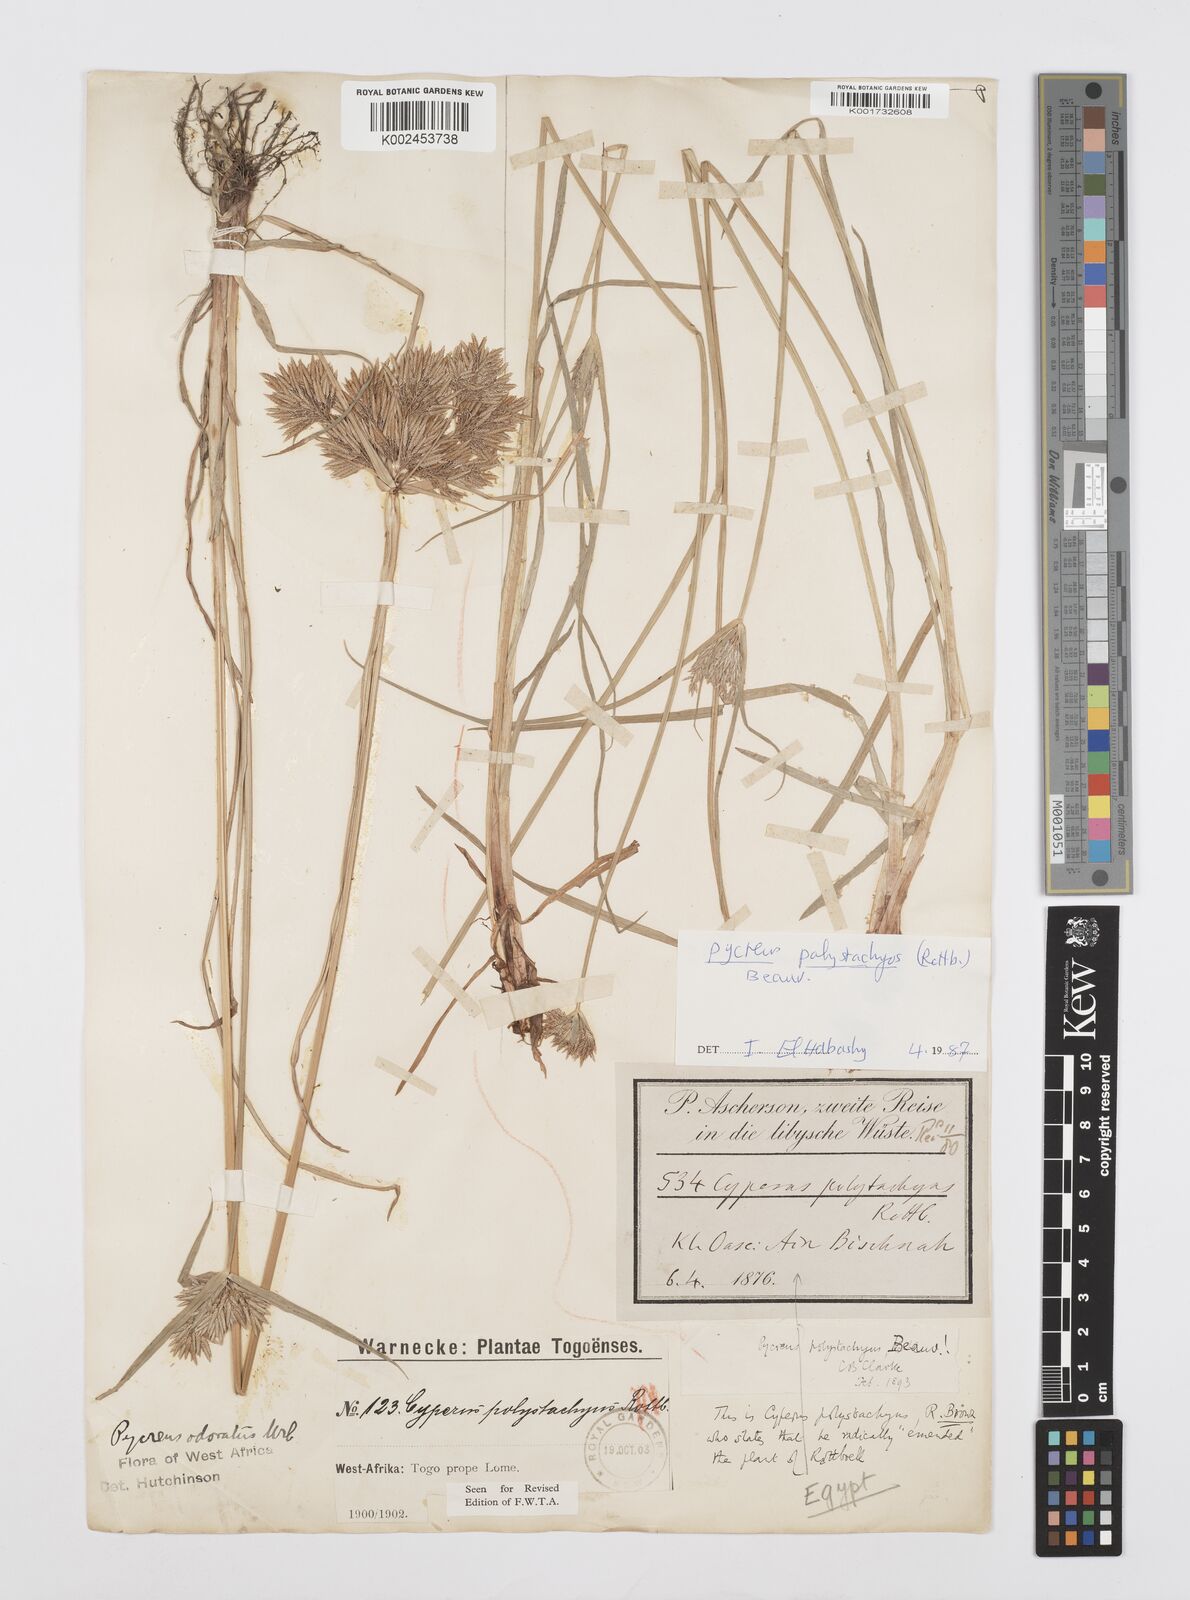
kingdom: Plantae
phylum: Tracheophyta
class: Liliopsida
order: Poales
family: Cyperaceae
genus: Cyperus
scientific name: Cyperus polystachyos
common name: Bunchy flat sedge
